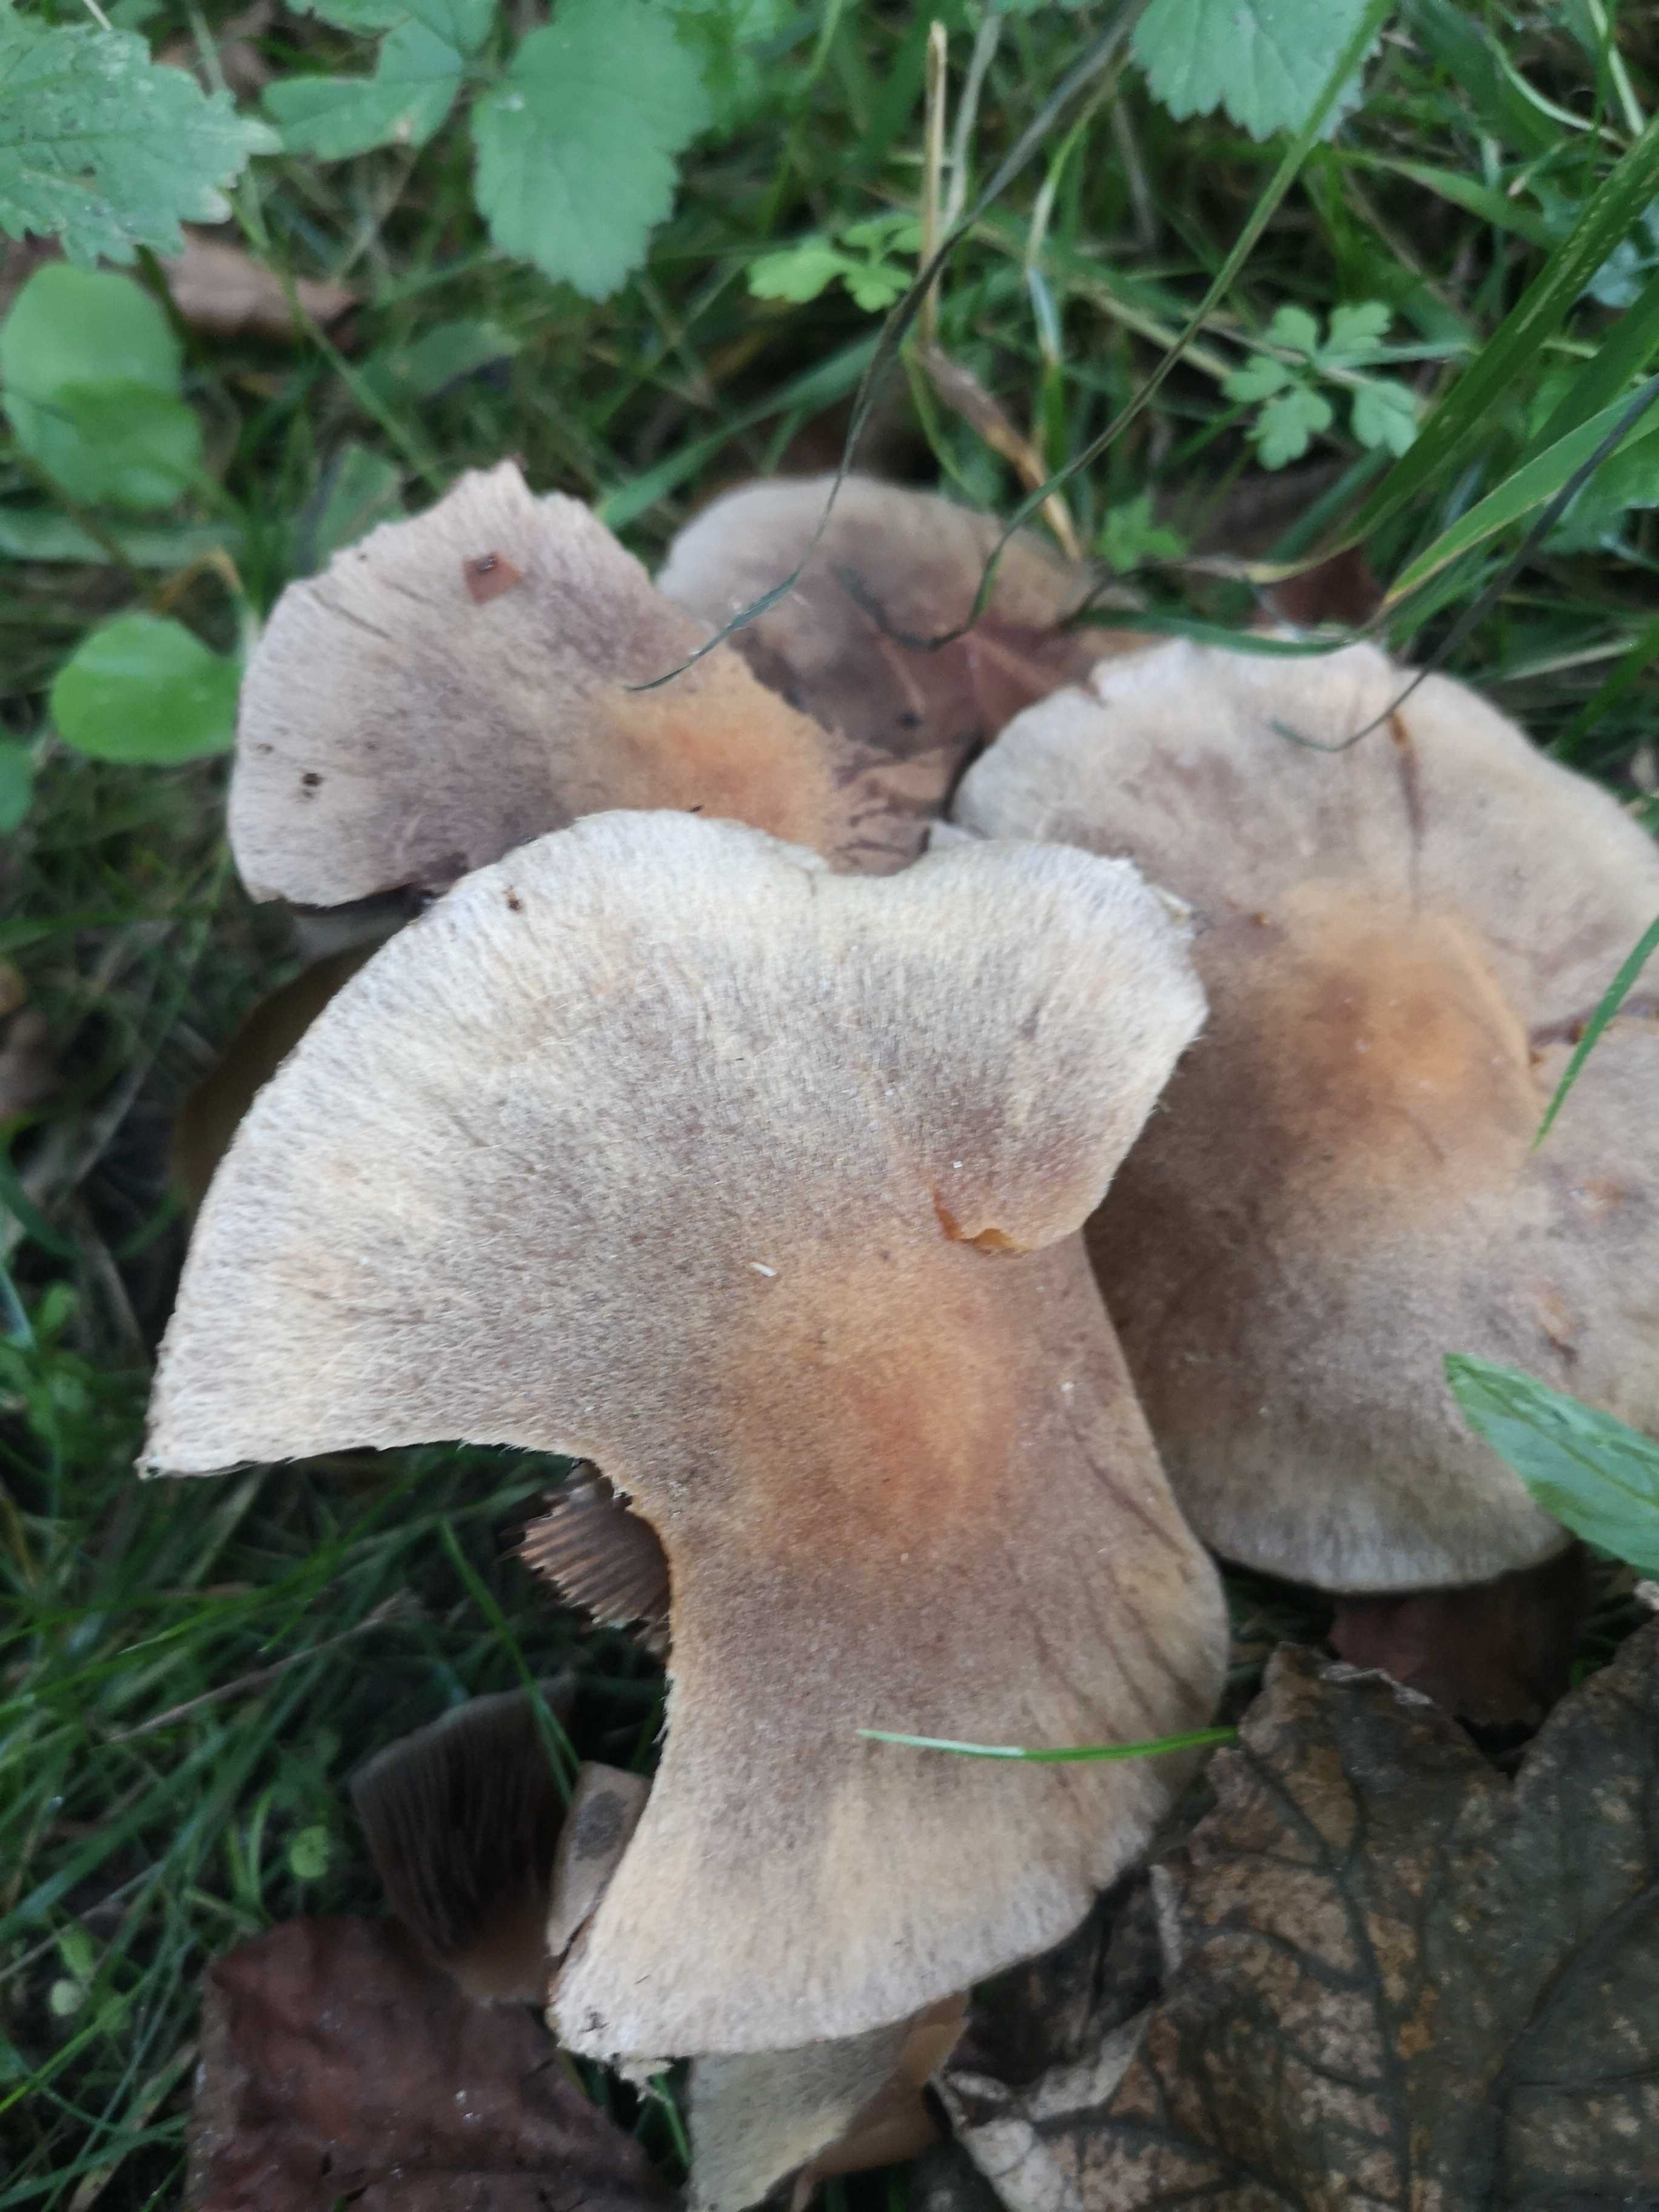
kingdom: Fungi
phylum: Basidiomycota
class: Agaricomycetes
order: Agaricales
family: Psathyrellaceae
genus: Lacrymaria
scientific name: Lacrymaria lacrymabunda
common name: grædende mørkhat
